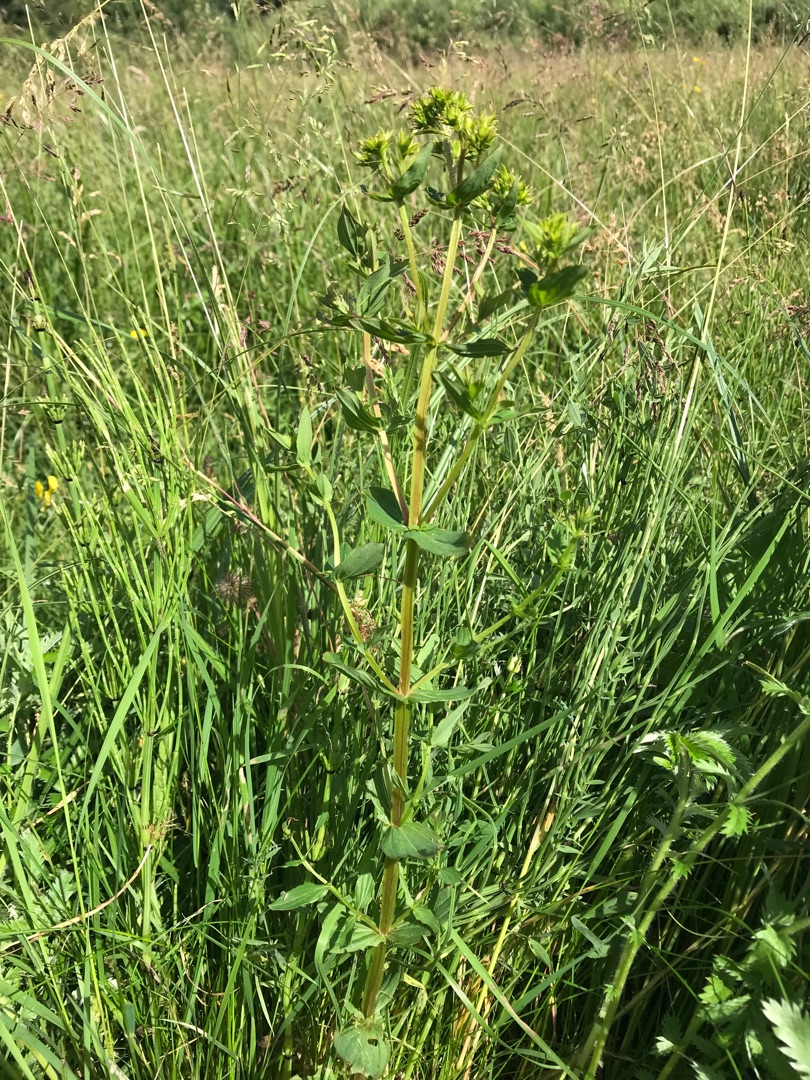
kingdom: Plantae
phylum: Tracheophyta
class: Magnoliopsida
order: Malpighiales
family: Hypericaceae
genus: Hypericum
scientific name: Hypericum tetrapterum
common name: Vinget perikon
